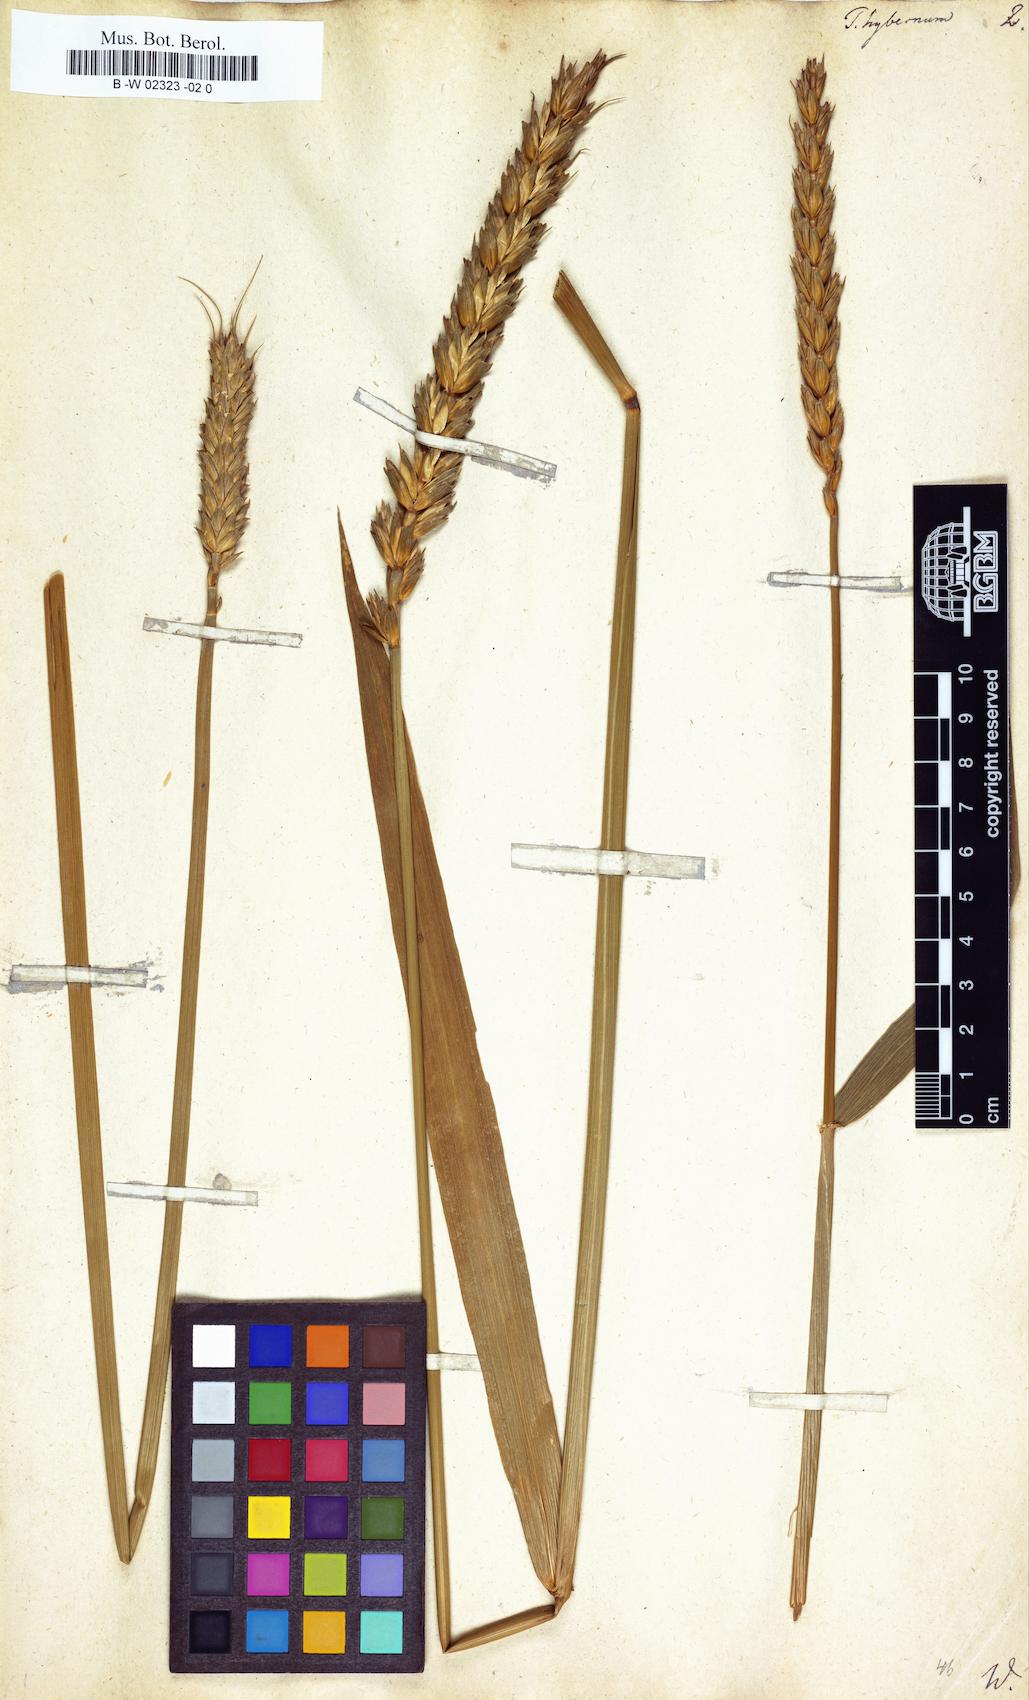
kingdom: Plantae
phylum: Tracheophyta
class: Liliopsida
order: Poales
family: Poaceae
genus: Triticum
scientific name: Triticum aestivum
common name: Common wheat
